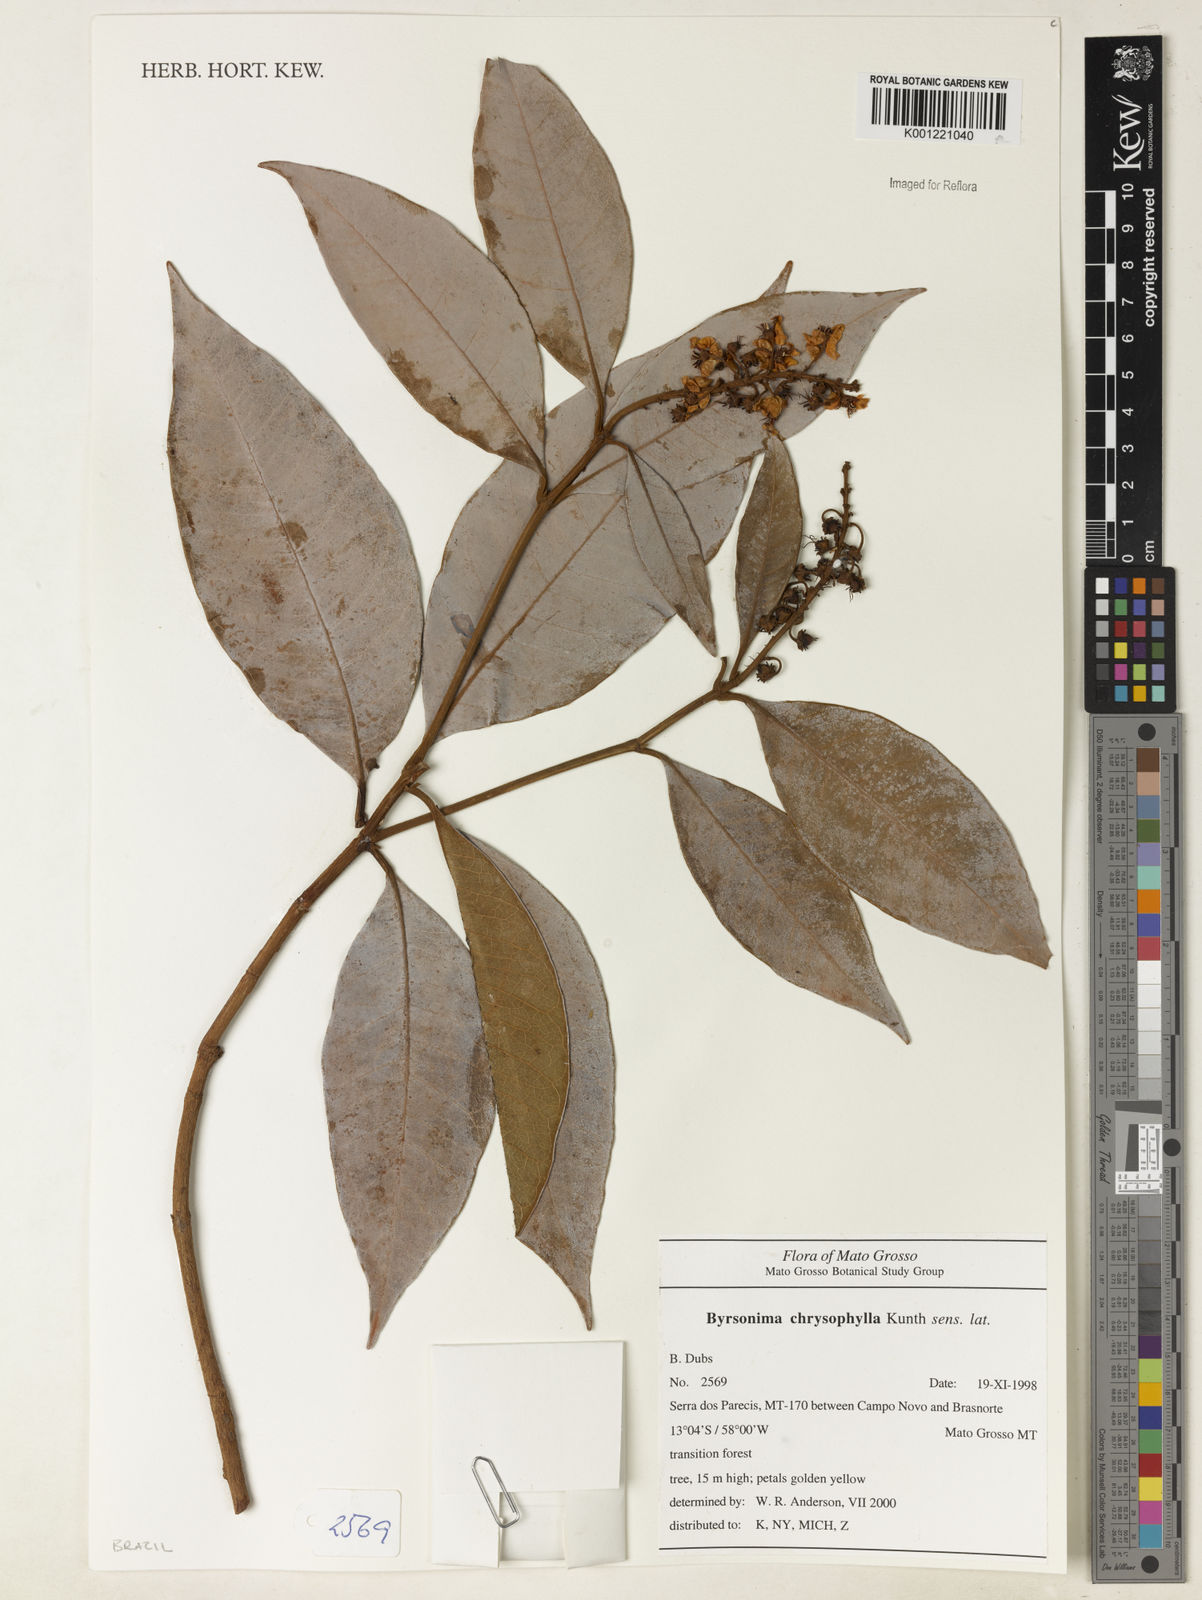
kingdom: Plantae
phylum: Tracheophyta
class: Magnoliopsida
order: Malpighiales
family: Malpighiaceae
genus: Byrsonima
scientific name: Byrsonima chrysophylla
